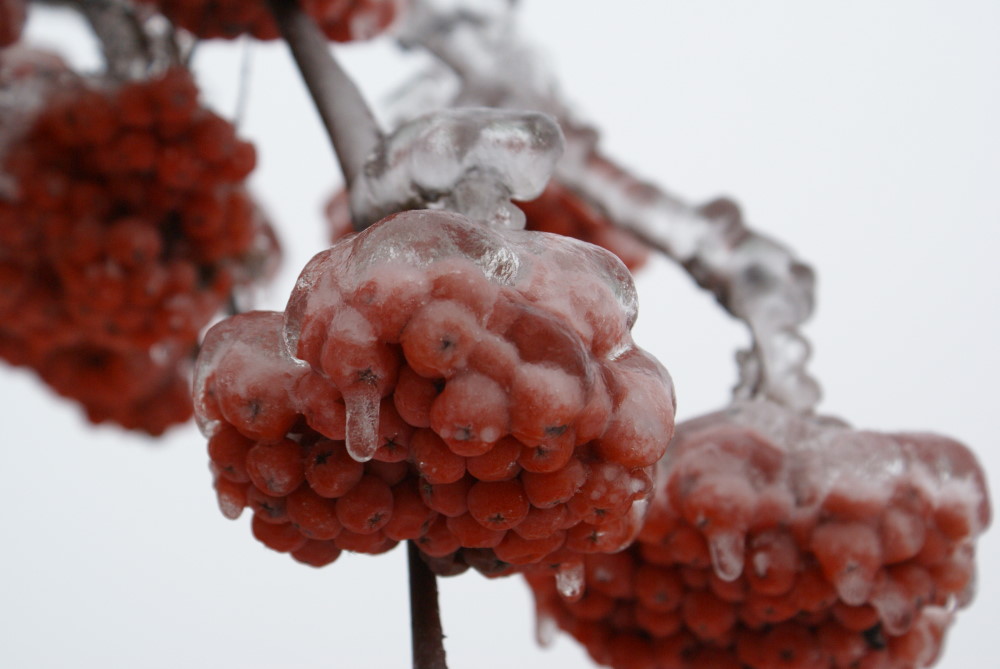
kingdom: Plantae
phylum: Tracheophyta
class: Magnoliopsida
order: Rosales
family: Rosaceae
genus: Sorbus
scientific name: Sorbus aucuparia
